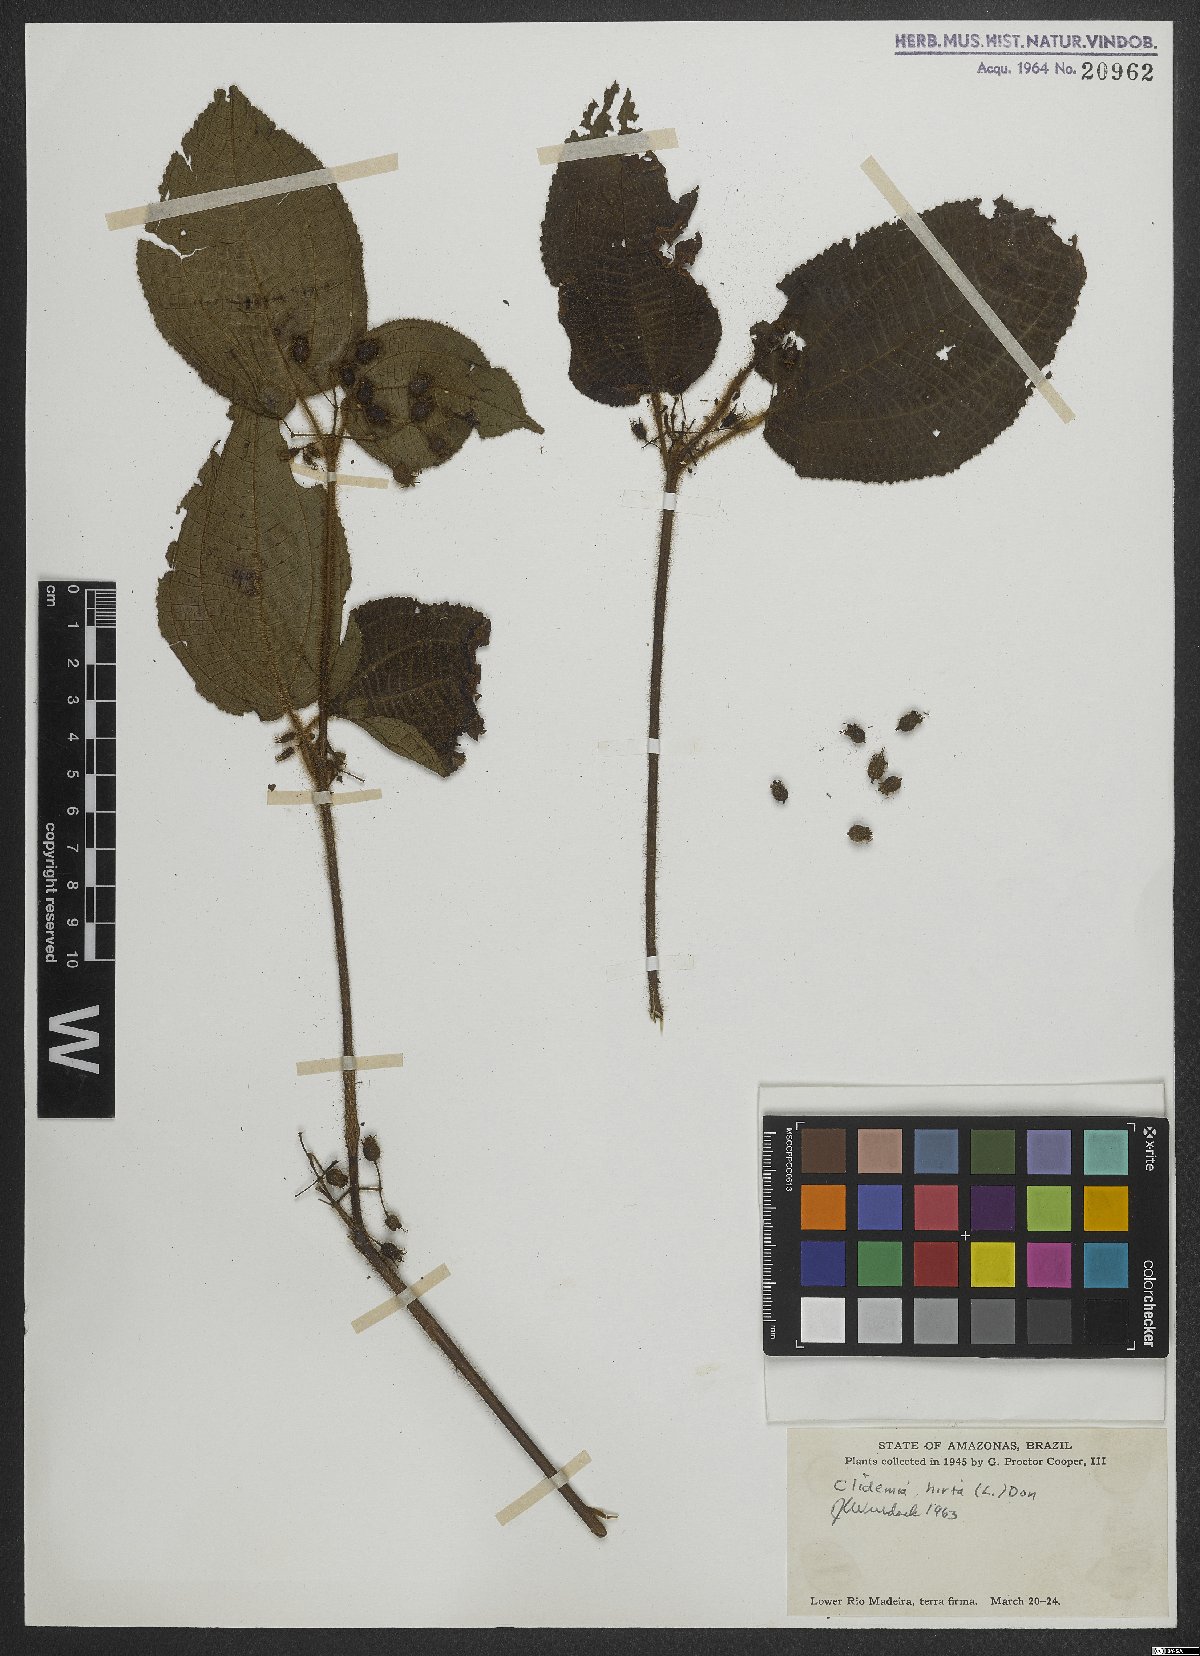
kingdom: Plantae
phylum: Tracheophyta
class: Magnoliopsida
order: Myrtales
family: Melastomataceae
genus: Miconia
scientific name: Miconia crenata
